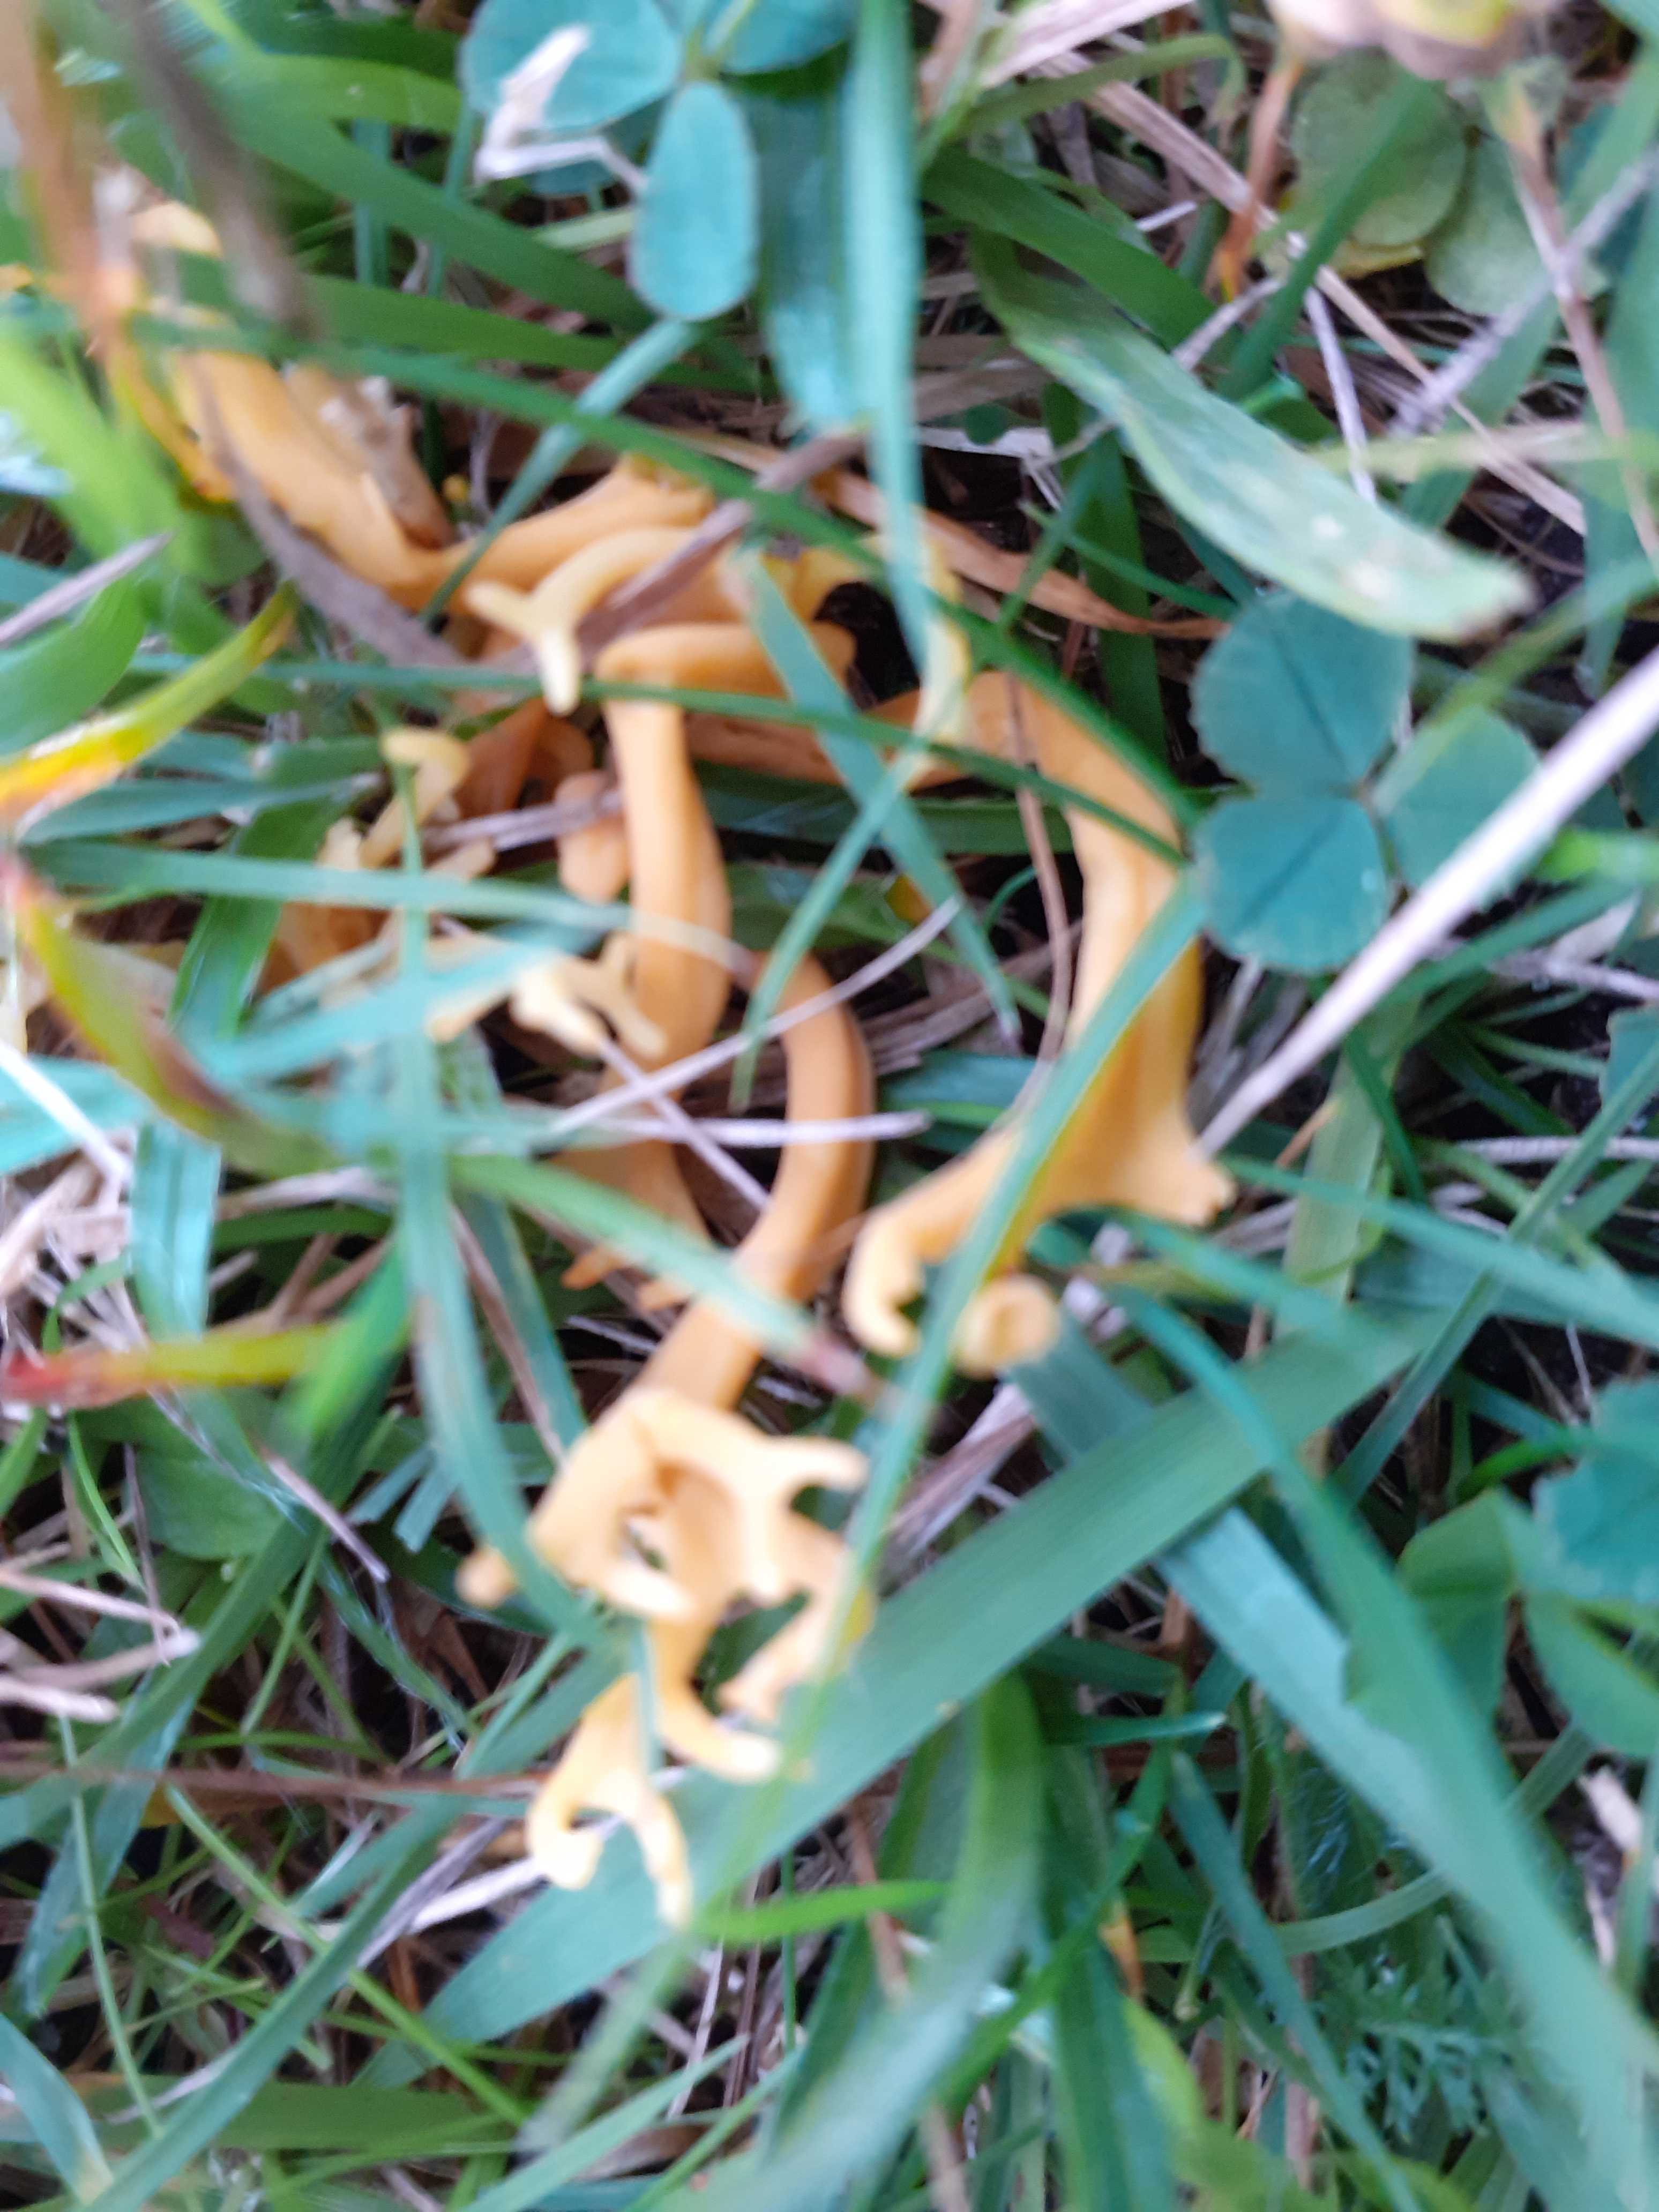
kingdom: Fungi
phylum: Basidiomycota
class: Agaricomycetes
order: Agaricales
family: Clavariaceae
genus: Clavulinopsis
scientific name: Clavulinopsis corniculata
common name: eng-køllesvamp
